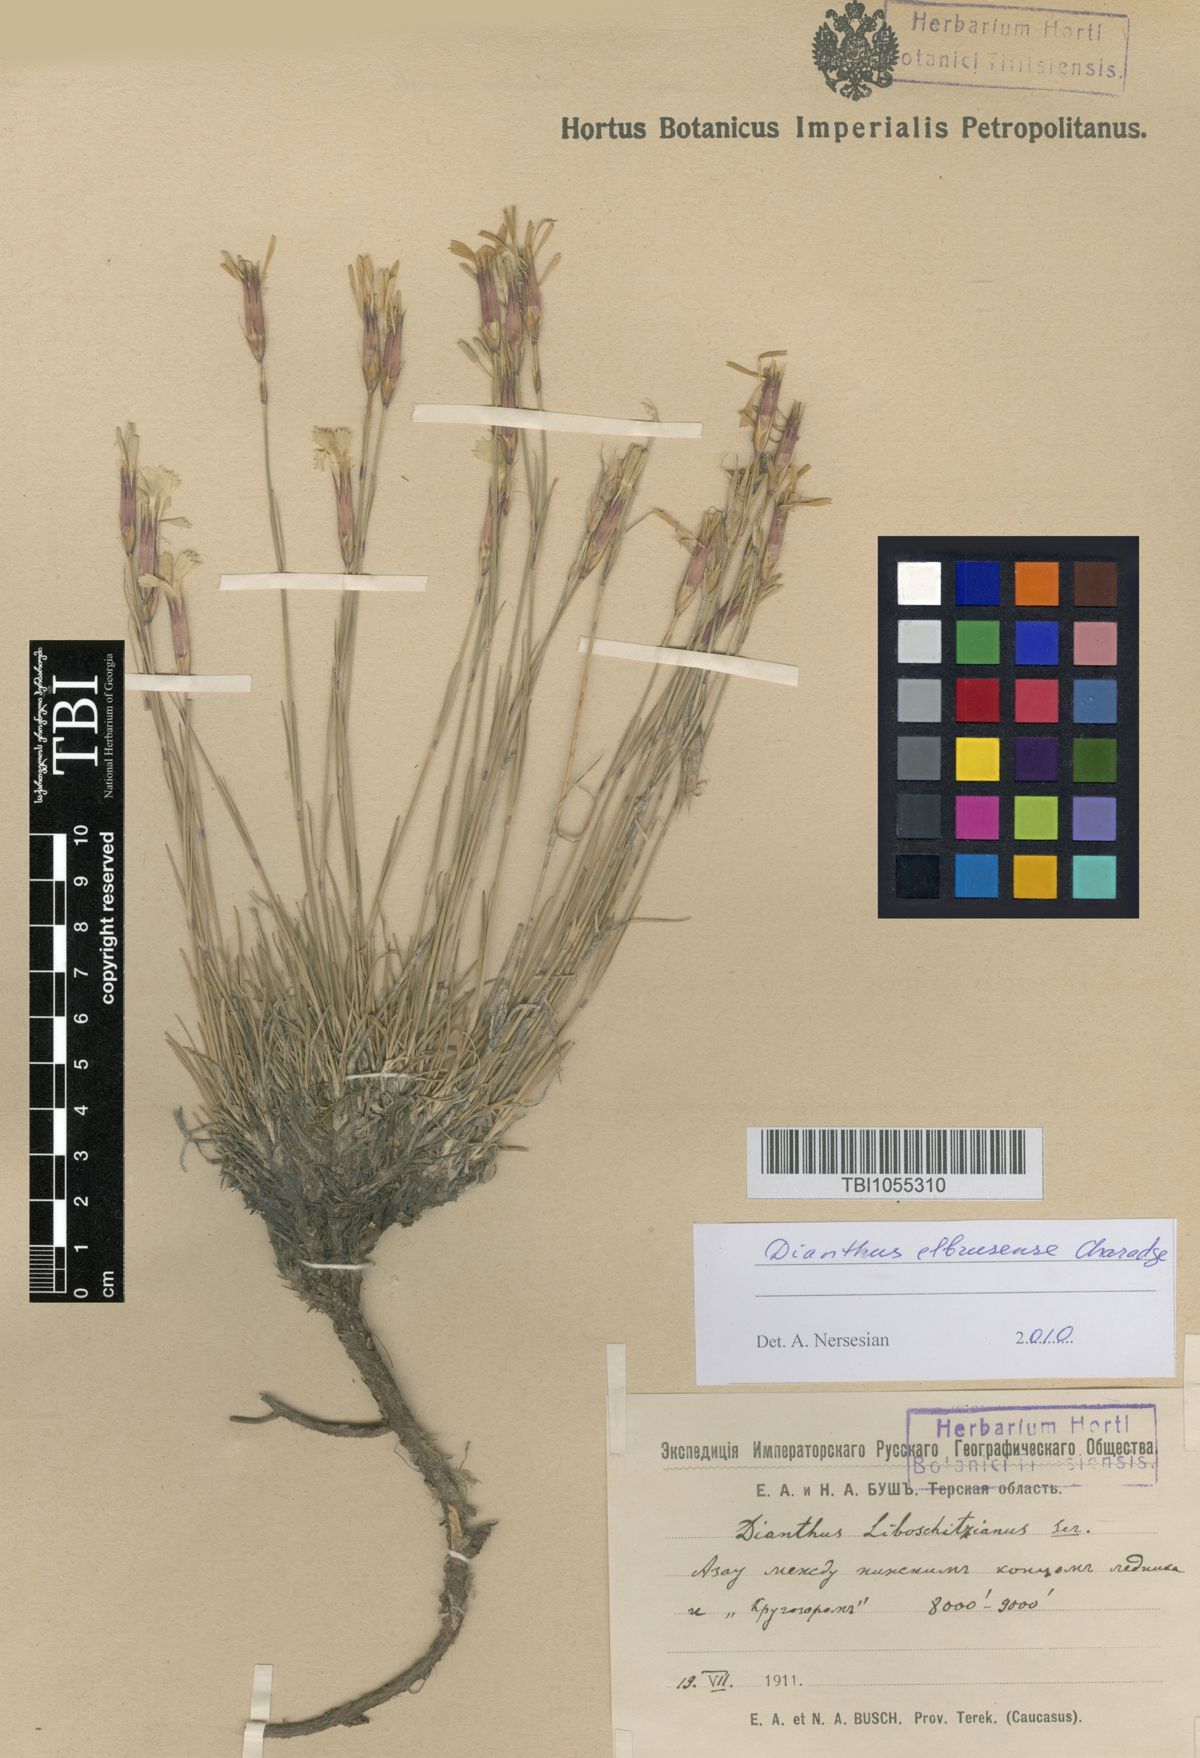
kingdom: Plantae
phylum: Tracheophyta
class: Magnoliopsida
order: Caryophyllales
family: Caryophyllaceae
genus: Dianthus
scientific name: Dianthus cretaceus
